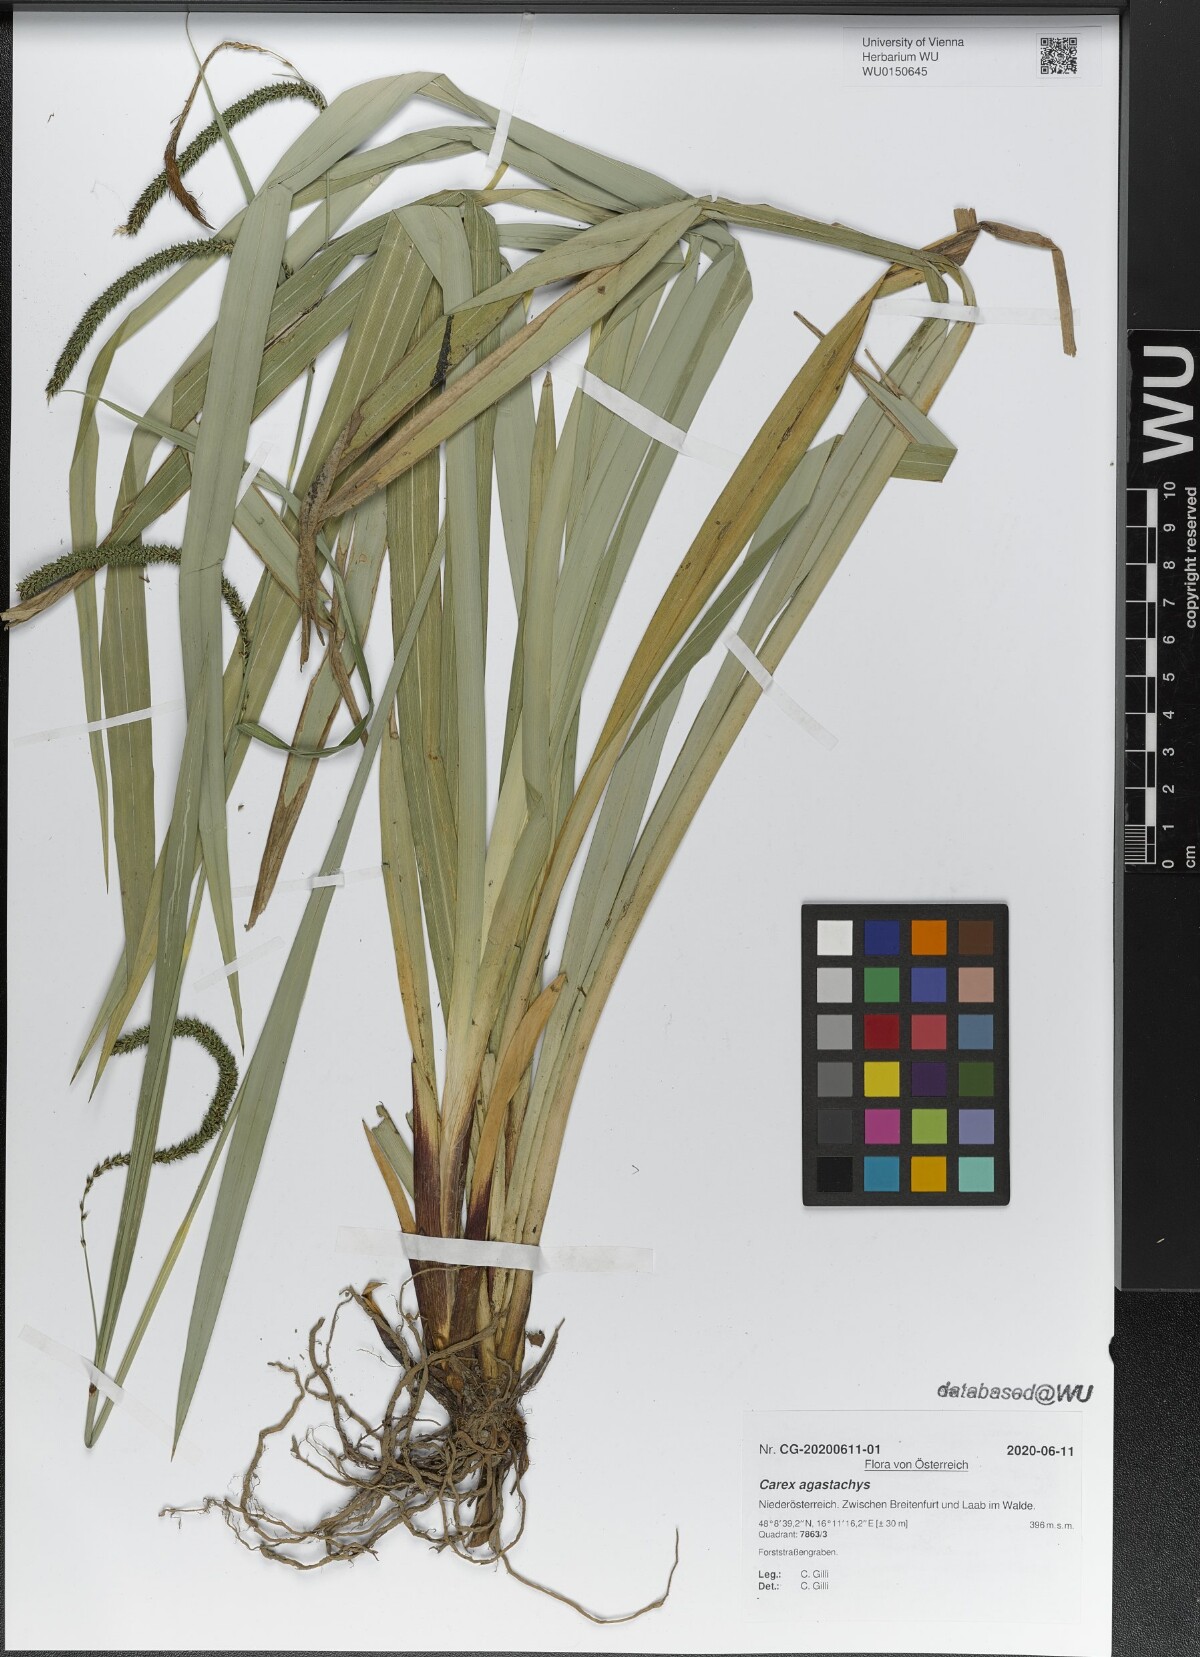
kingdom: Plantae
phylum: Tracheophyta
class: Liliopsida
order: Poales
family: Cyperaceae
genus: Carex
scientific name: Carex agastachys
